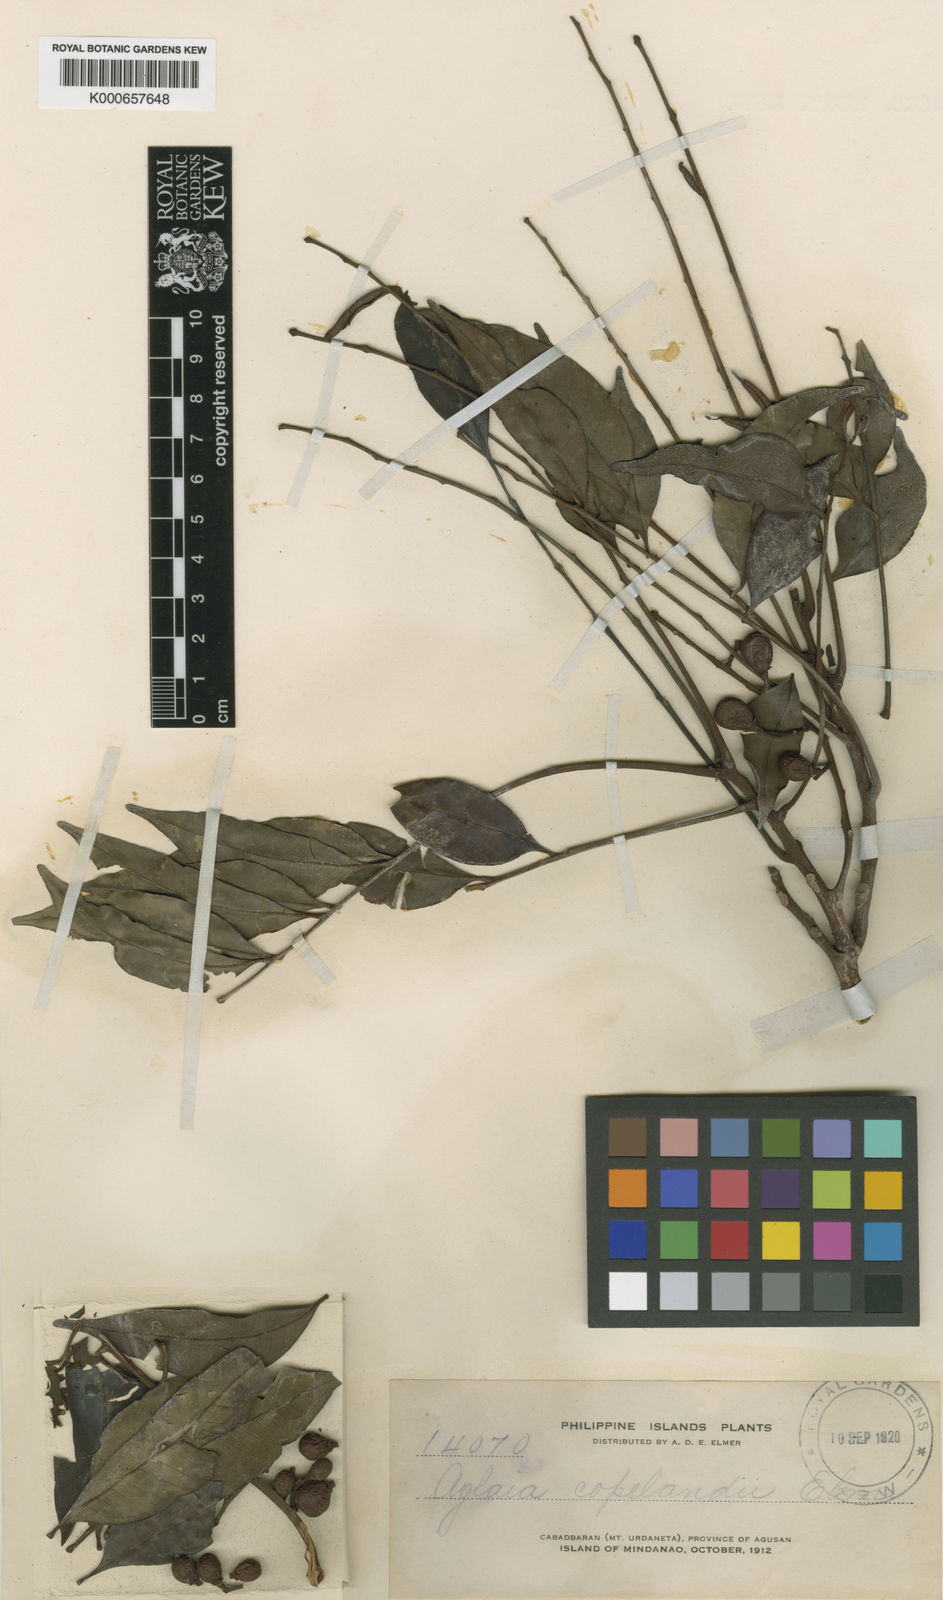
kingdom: Plantae
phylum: Tracheophyta
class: Magnoliopsida
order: Sapindales
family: Meliaceae
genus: Aglaia
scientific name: Aglaia silvestris
